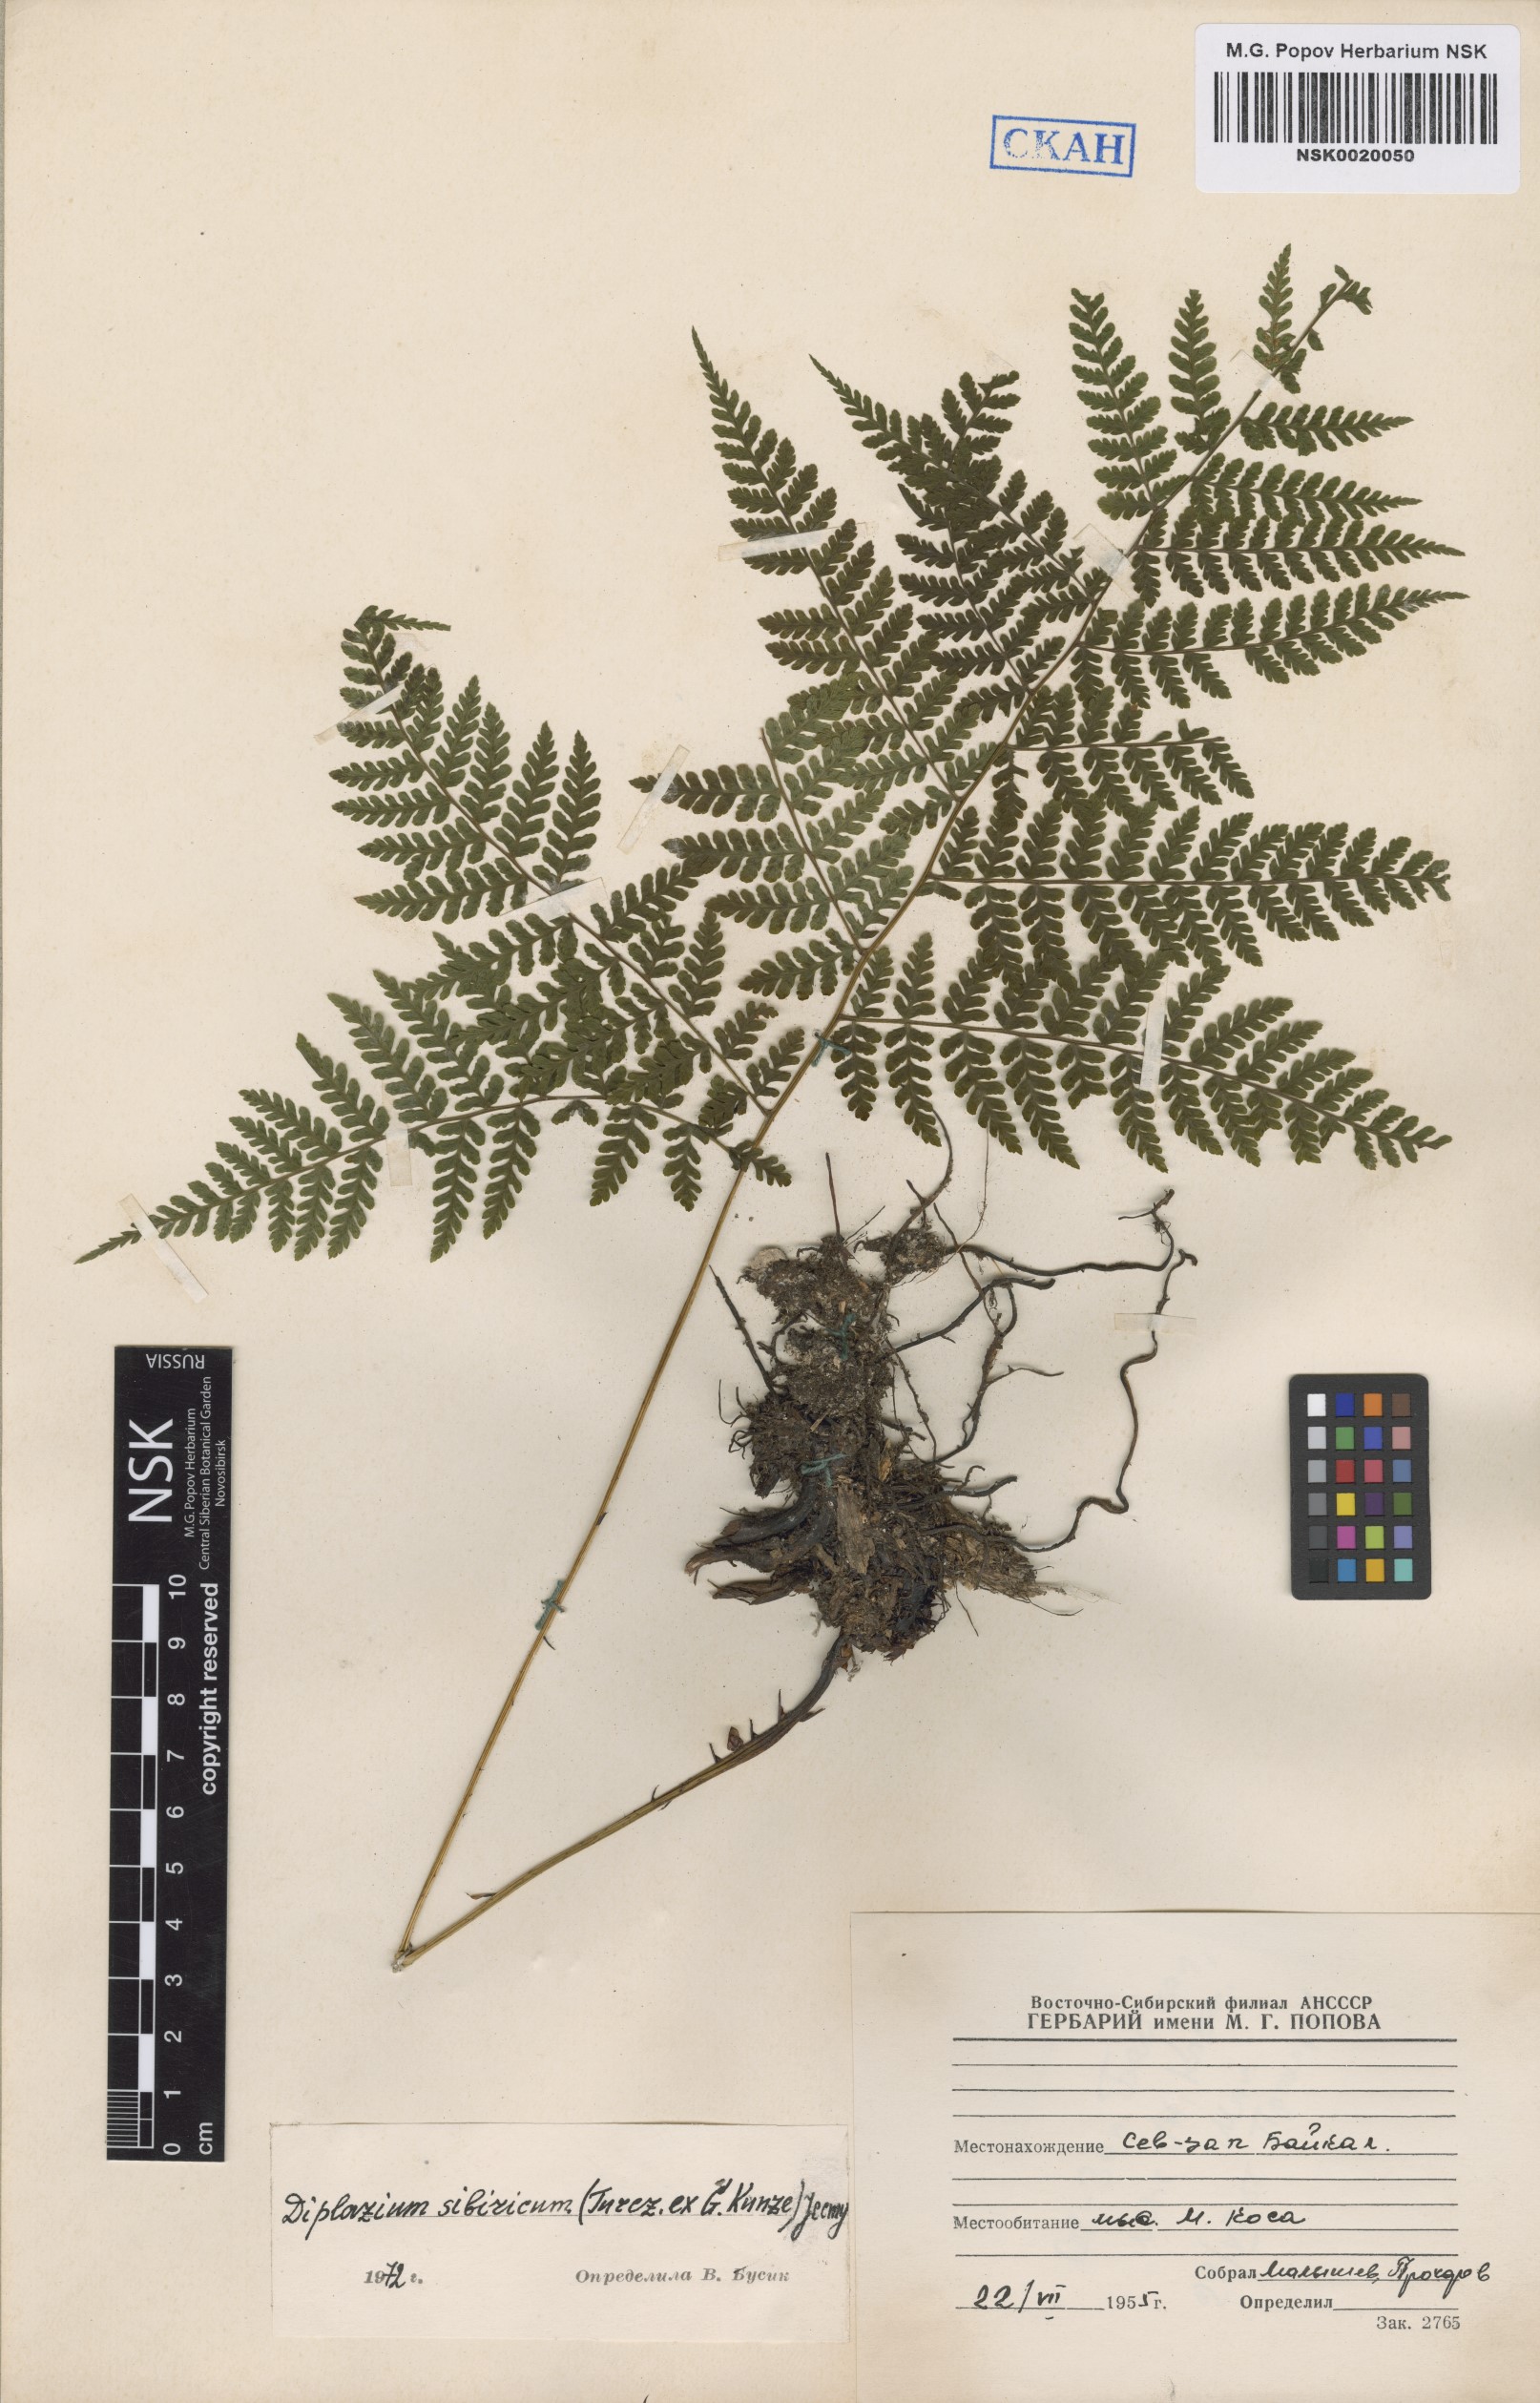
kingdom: Plantae
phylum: Tracheophyta
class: Polypodiopsida
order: Polypodiales
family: Athyriaceae
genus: Diplazium
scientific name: Diplazium sibiricum
